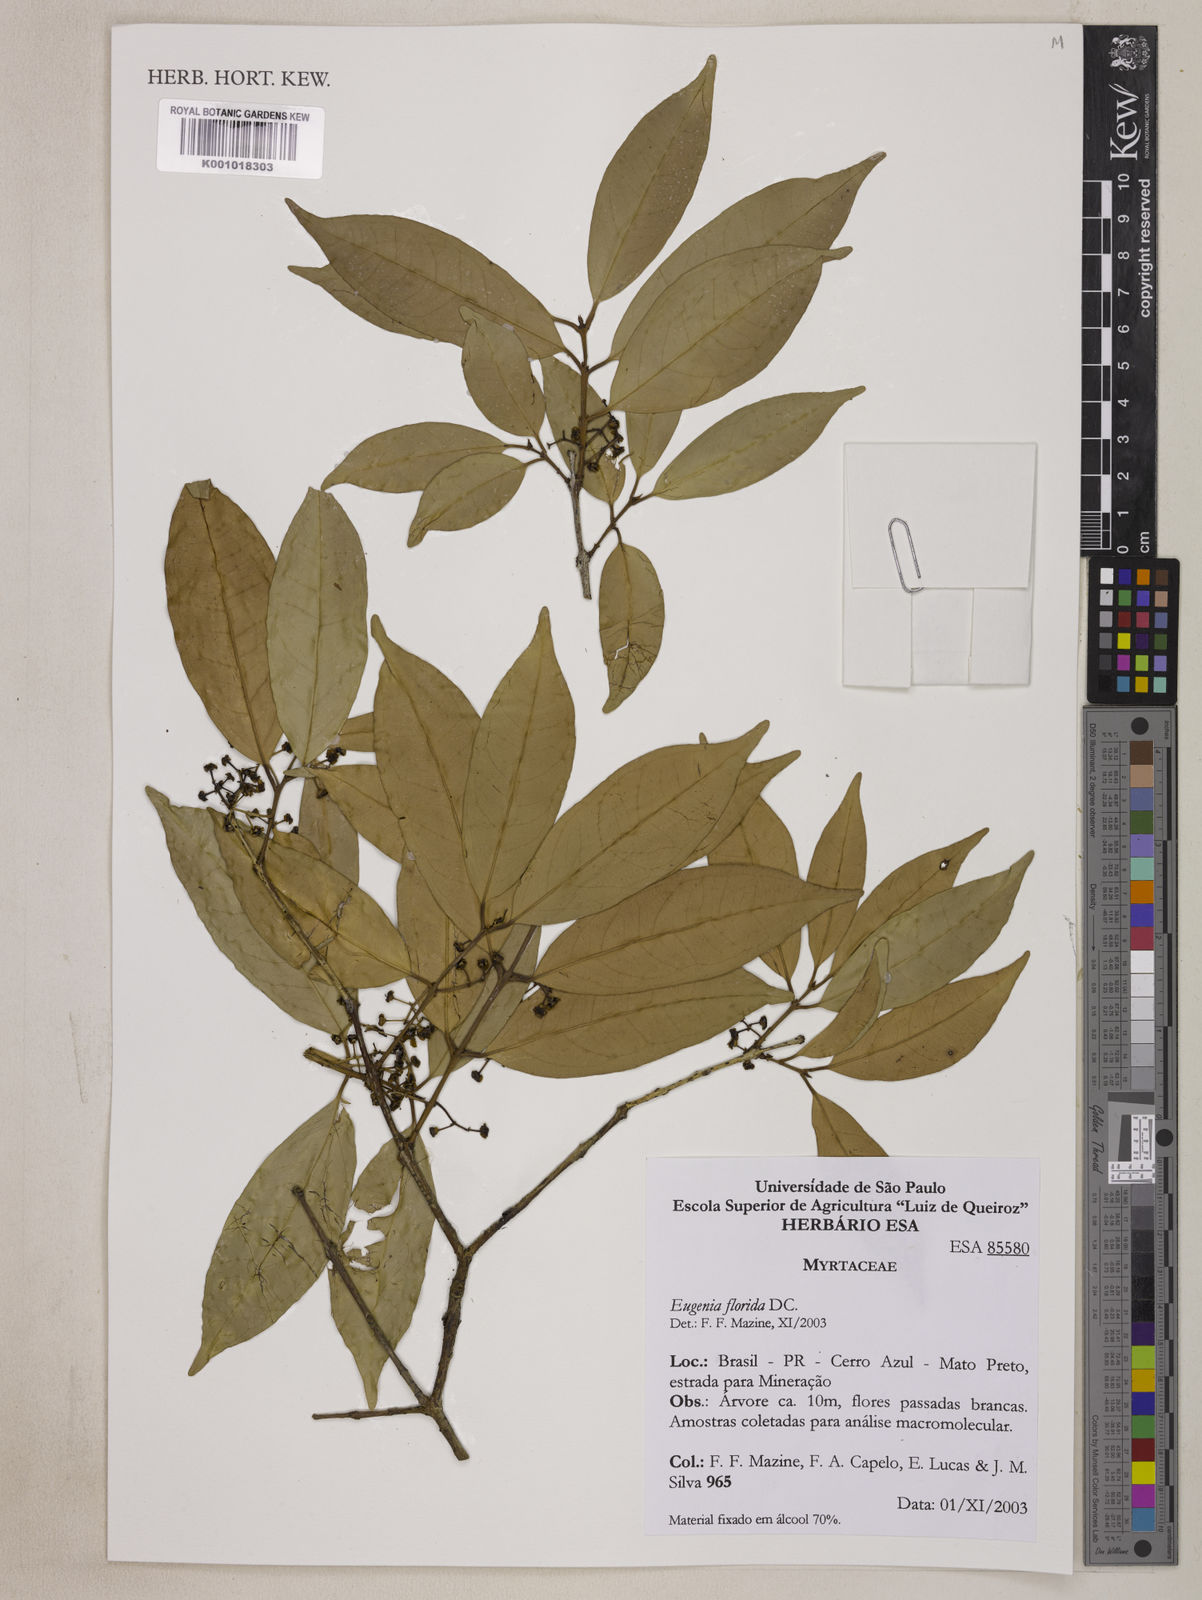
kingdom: Plantae
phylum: Tracheophyta
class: Magnoliopsida
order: Myrtales
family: Myrtaceae
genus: Eugenia
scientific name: Eugenia florida
